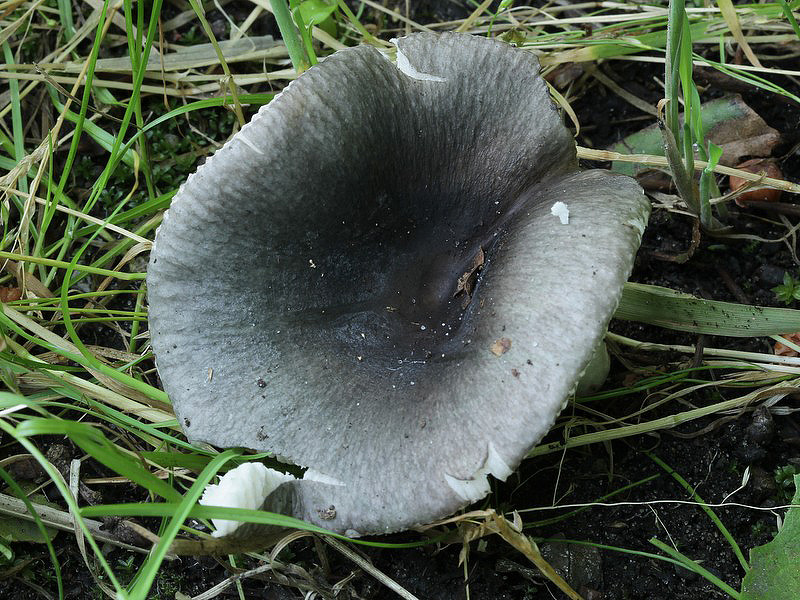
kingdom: Fungi
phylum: Basidiomycota
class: Agaricomycetes
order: Russulales
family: Russulaceae
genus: Russula
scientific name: Russula parazurea
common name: blågrå skørhat
